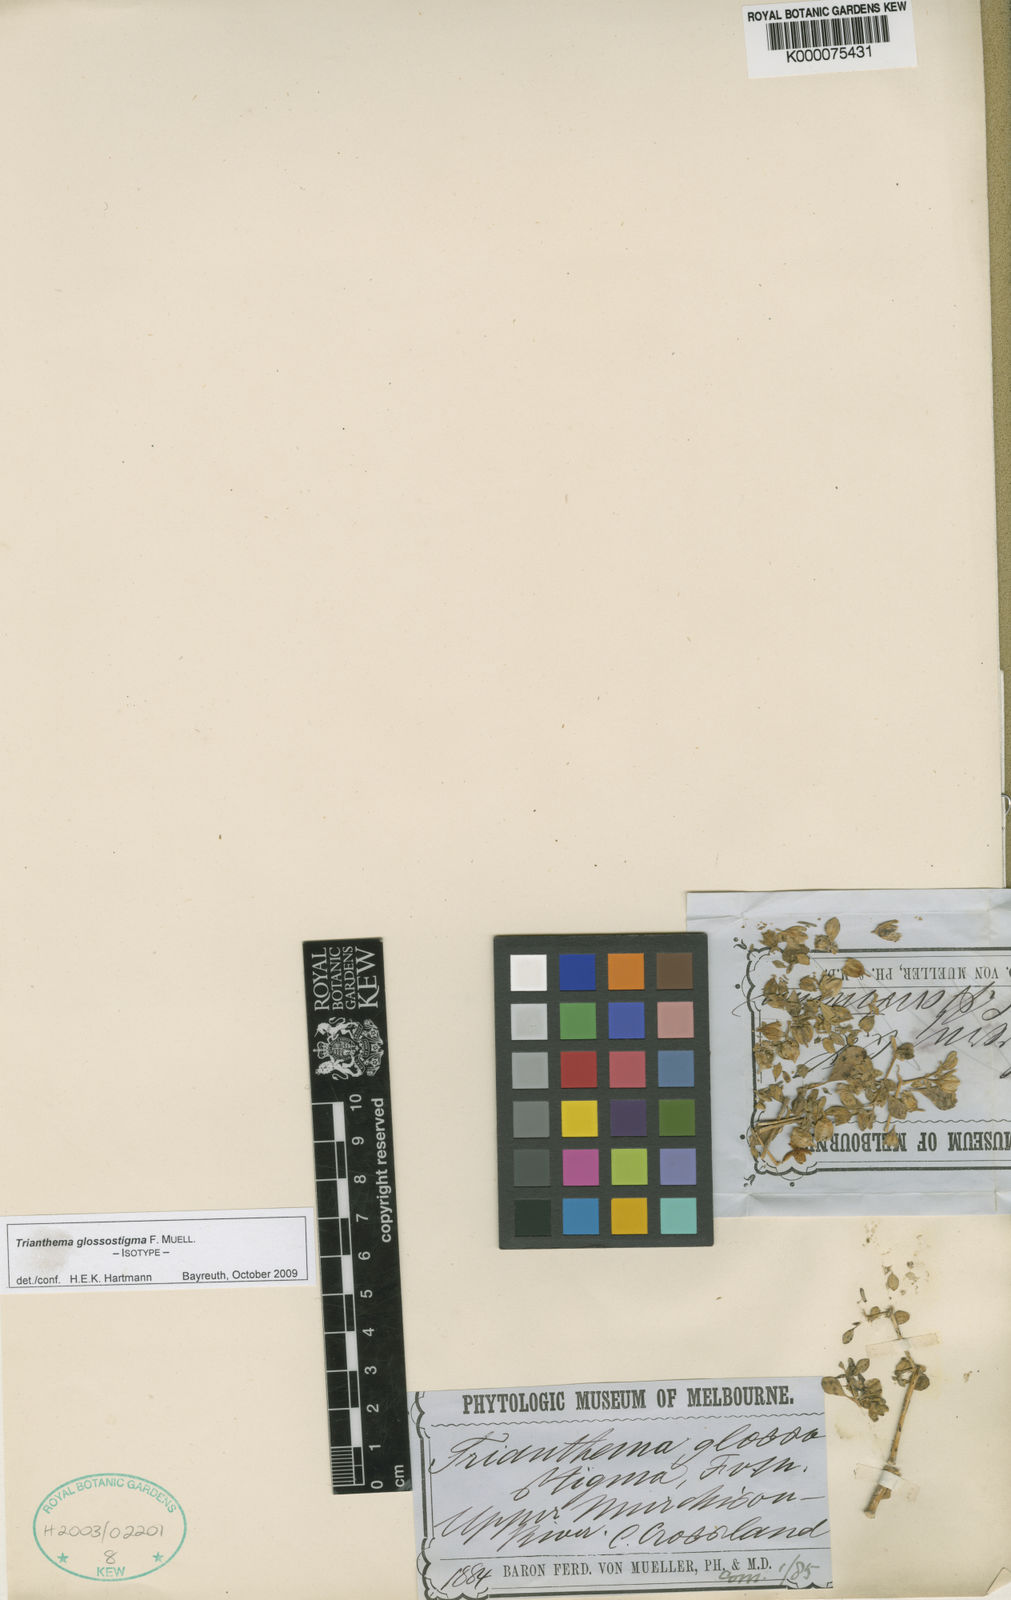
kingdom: Plantae
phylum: Tracheophyta
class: Magnoliopsida
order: Caryophyllales
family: Aizoaceae
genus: Trianthema
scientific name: Trianthema glossostigma
